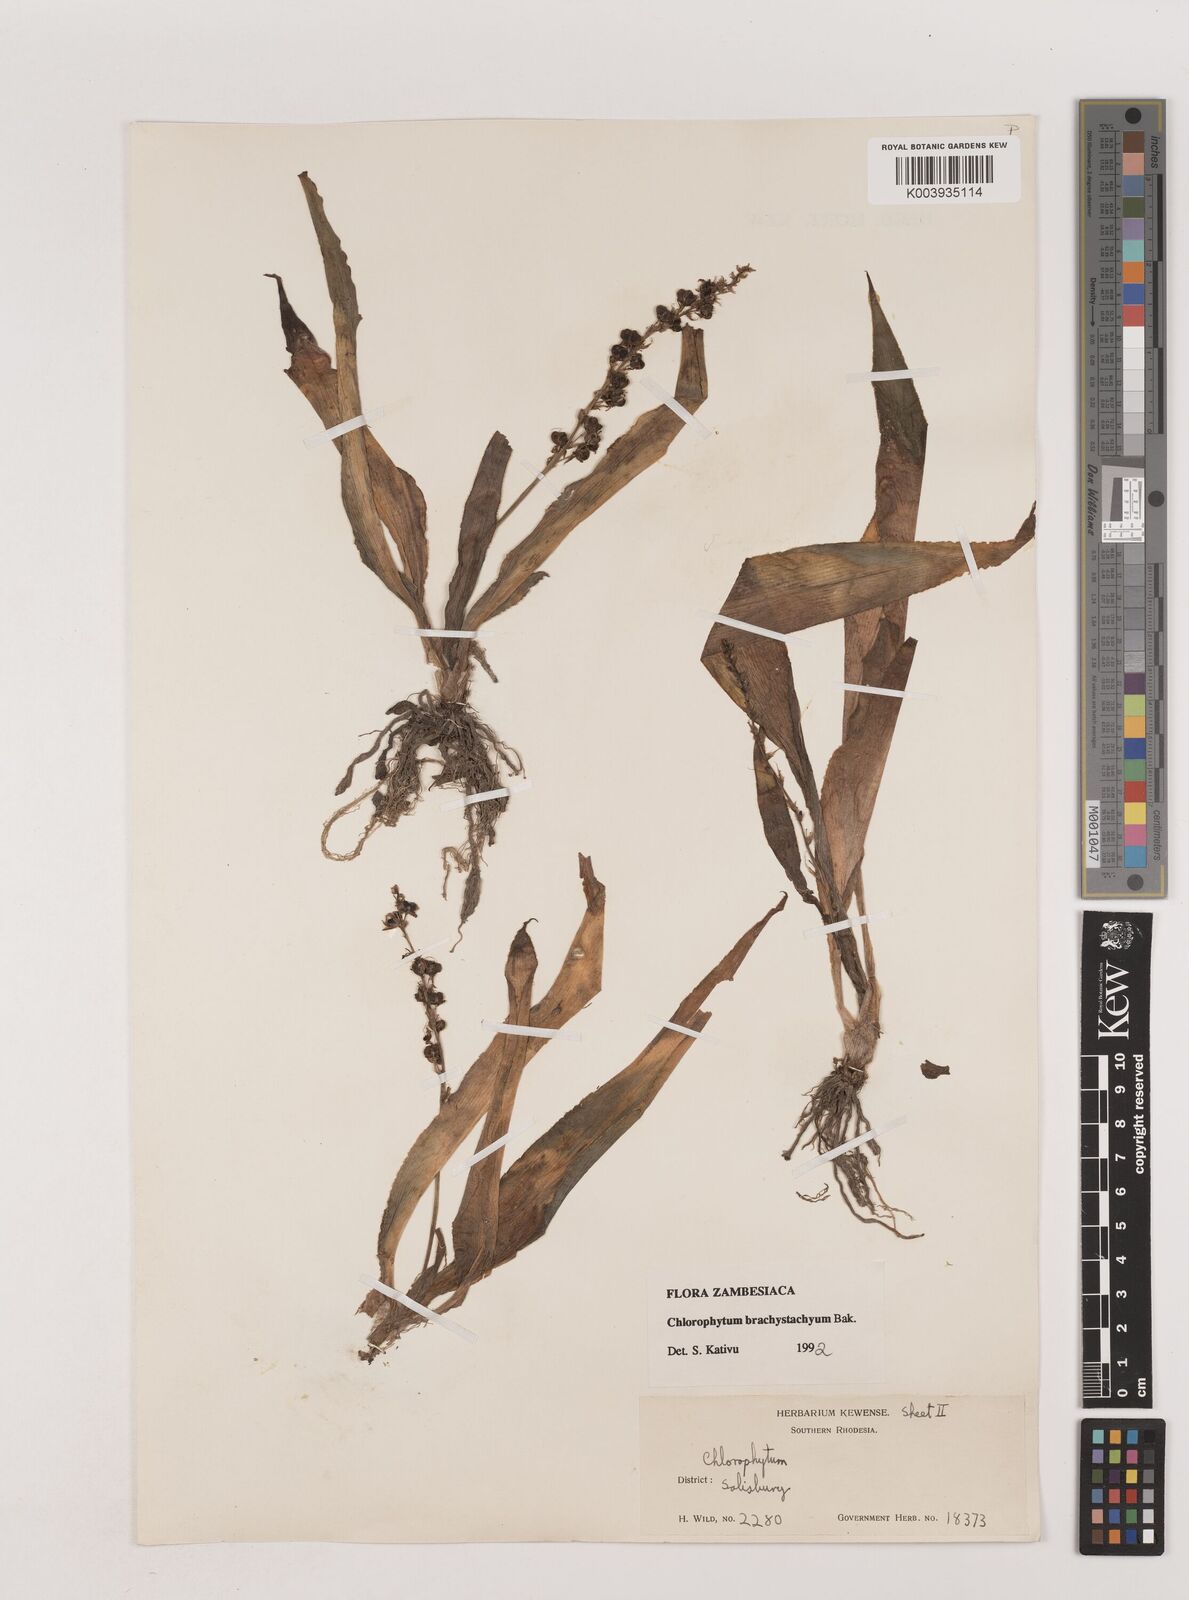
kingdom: Plantae
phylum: Tracheophyta
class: Liliopsida
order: Asparagales
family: Asparagaceae
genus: Chlorophytum
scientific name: Chlorophytum brachystachyum
